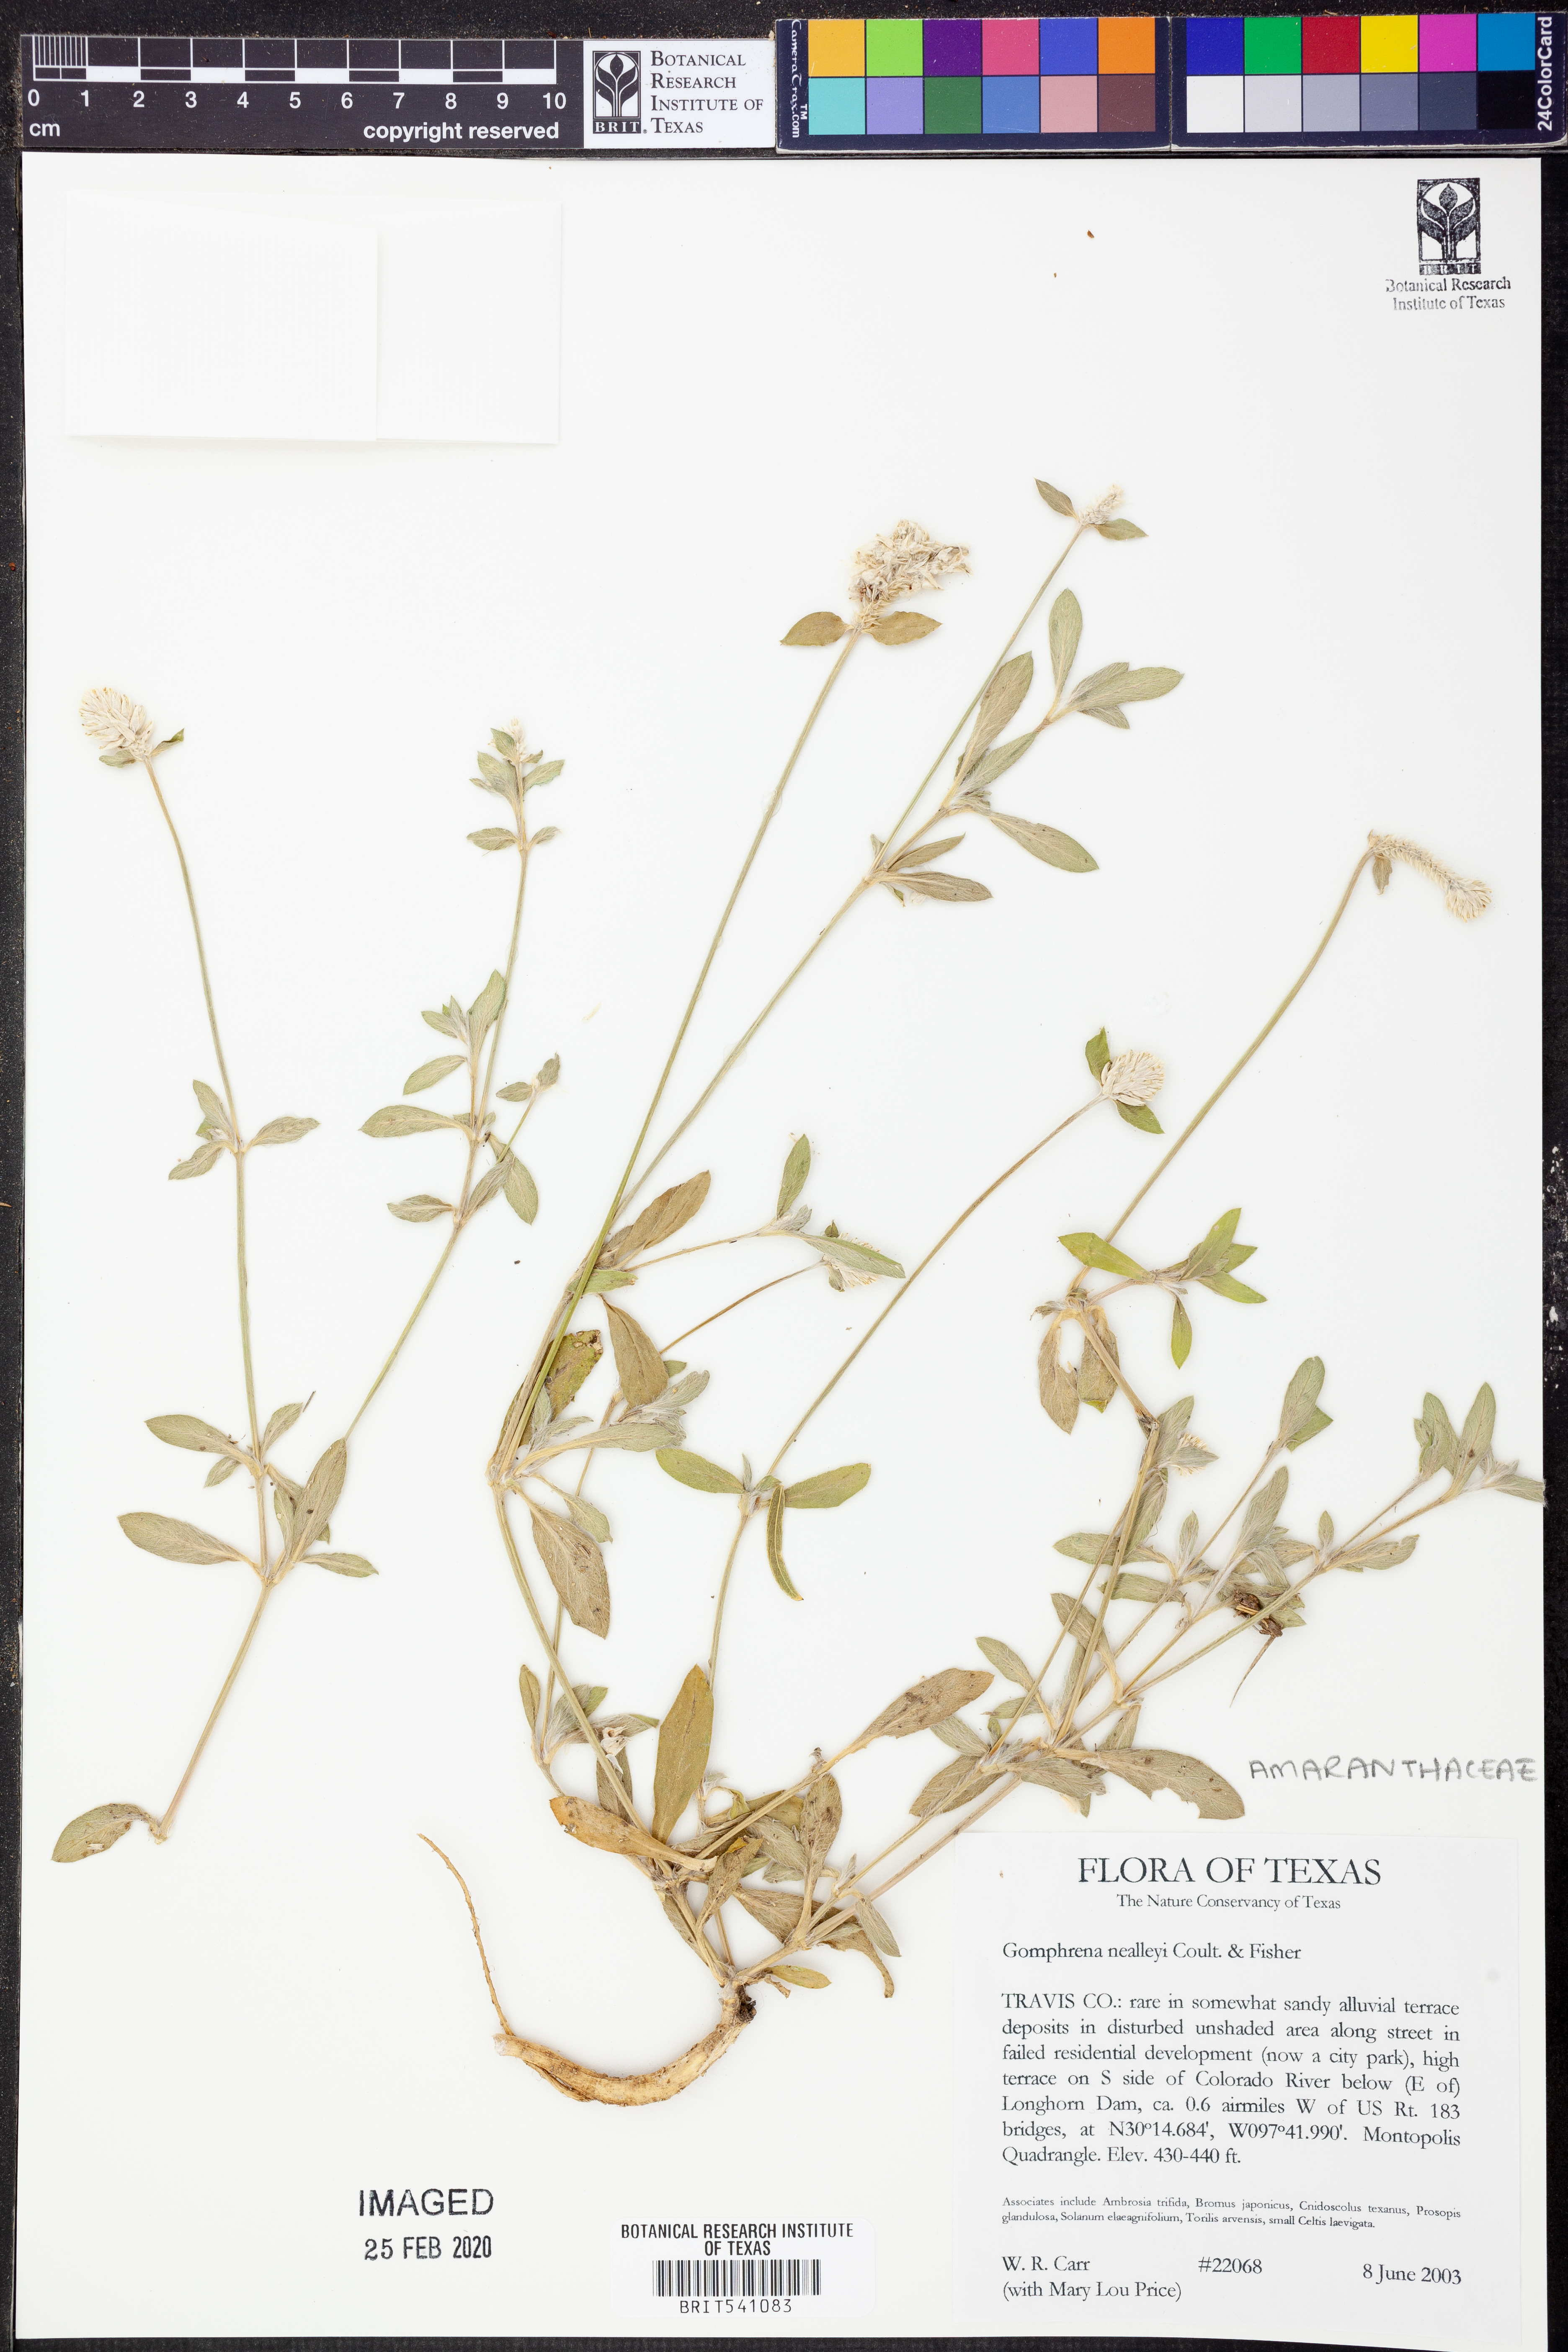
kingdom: Plantae
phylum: Tracheophyta
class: Magnoliopsida
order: Caryophyllales
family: Amaranthaceae
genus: Gomphrena
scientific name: Gomphrena nealleyi
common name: Nealley's globe-amaranth
